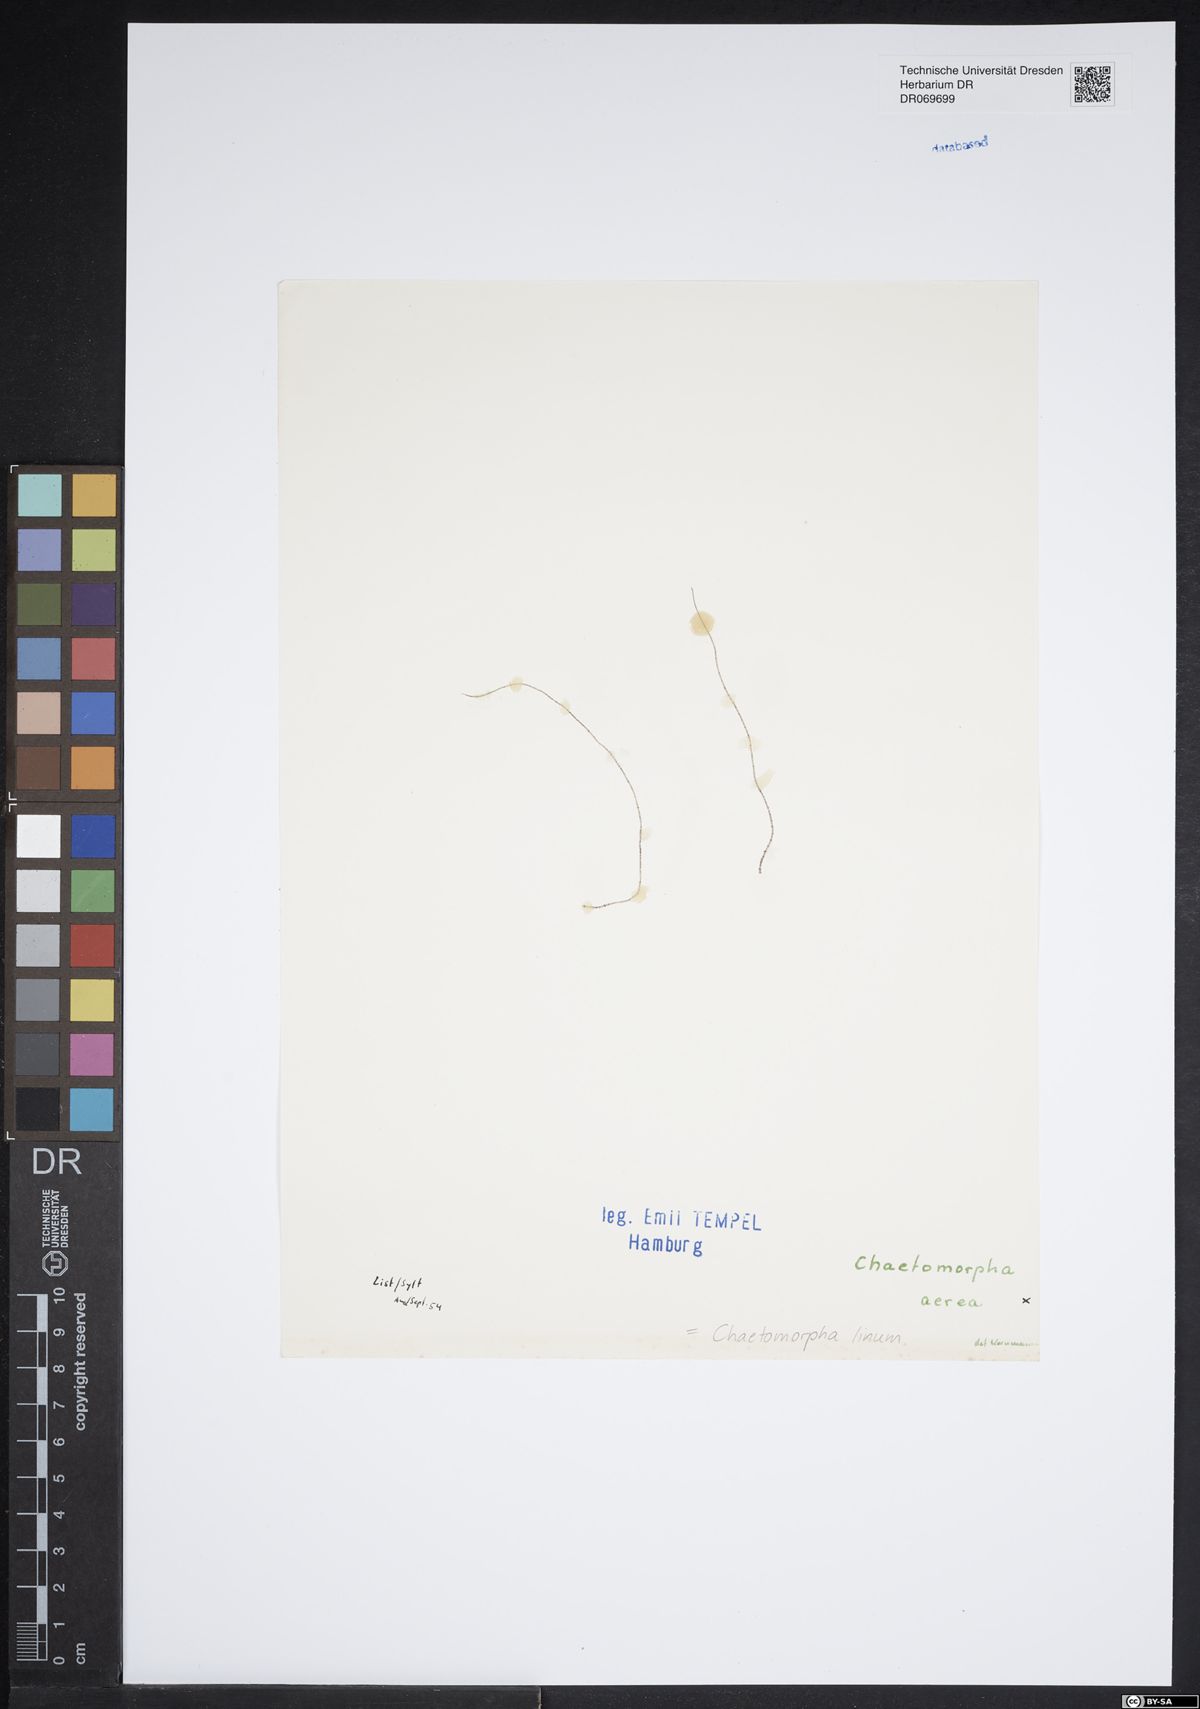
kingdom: Plantae
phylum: Chlorophyta
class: Ulvophyceae
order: Cladophorales
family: Cladophoraceae
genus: Chaetomorpha
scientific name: Chaetomorpha linum
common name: Sea hair
